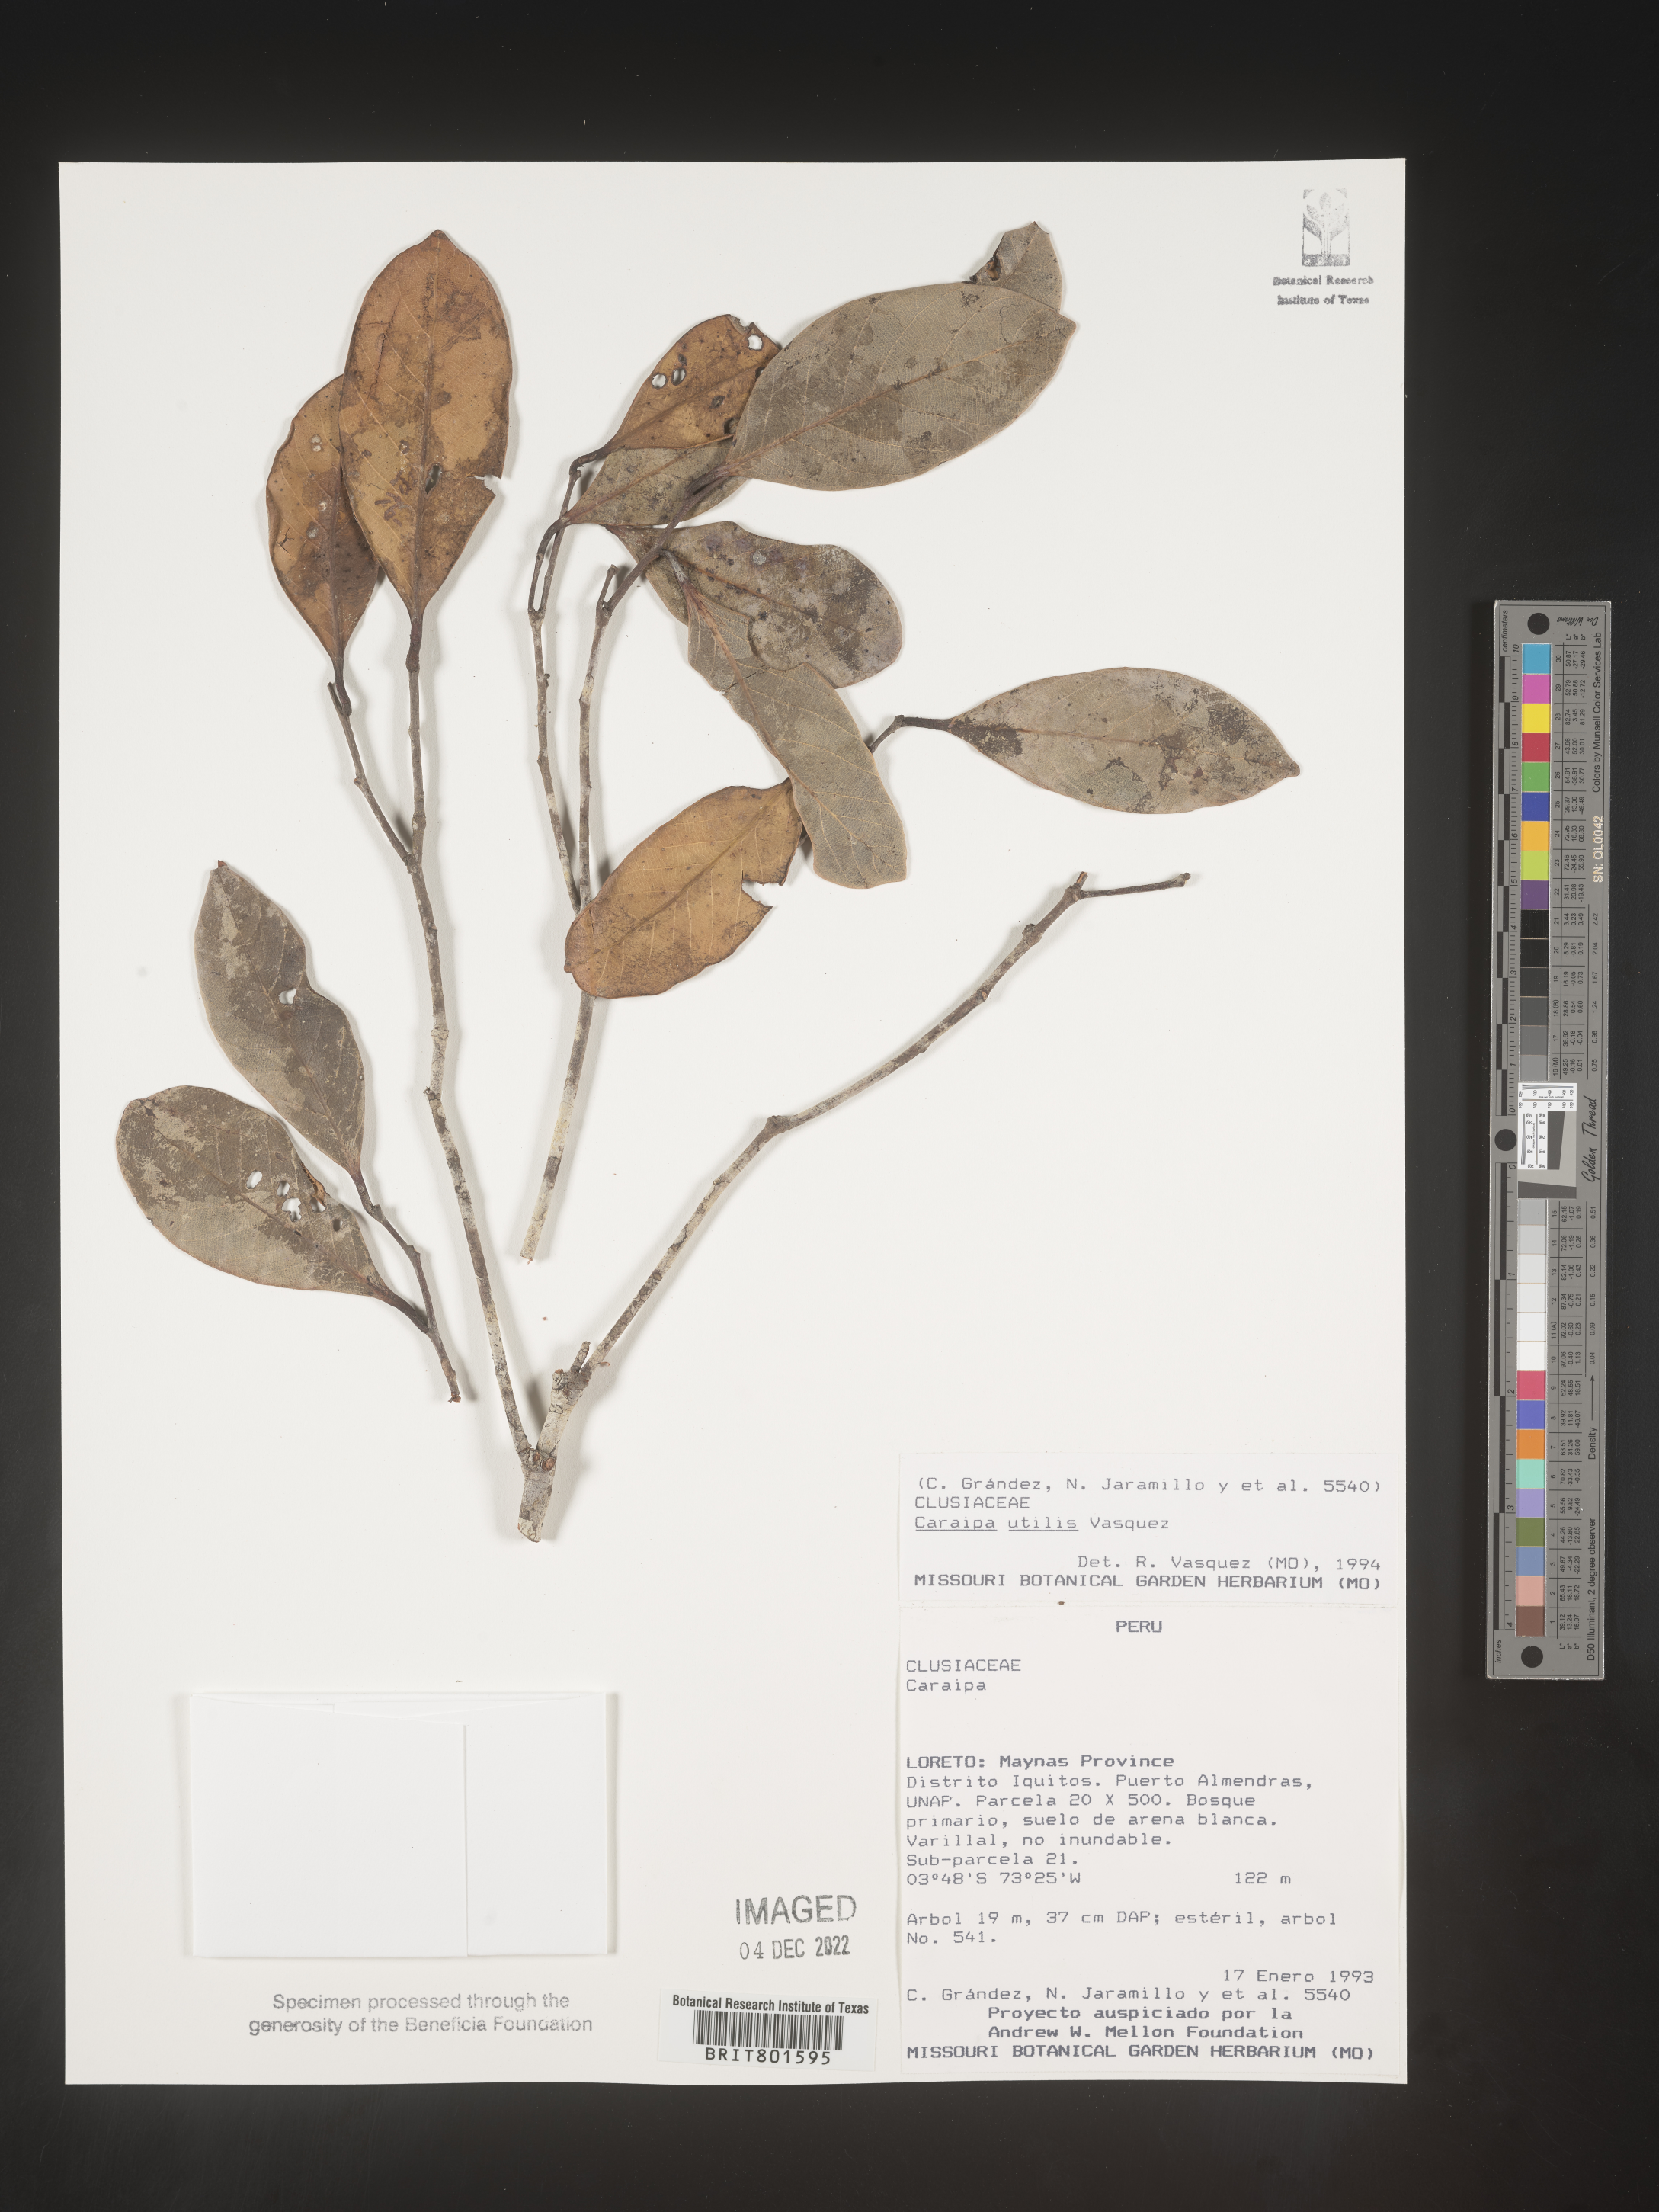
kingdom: Plantae
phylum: Tracheophyta
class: Magnoliopsida
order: Malpighiales
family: Calophyllaceae
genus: Caraipa
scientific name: Caraipa utilis
